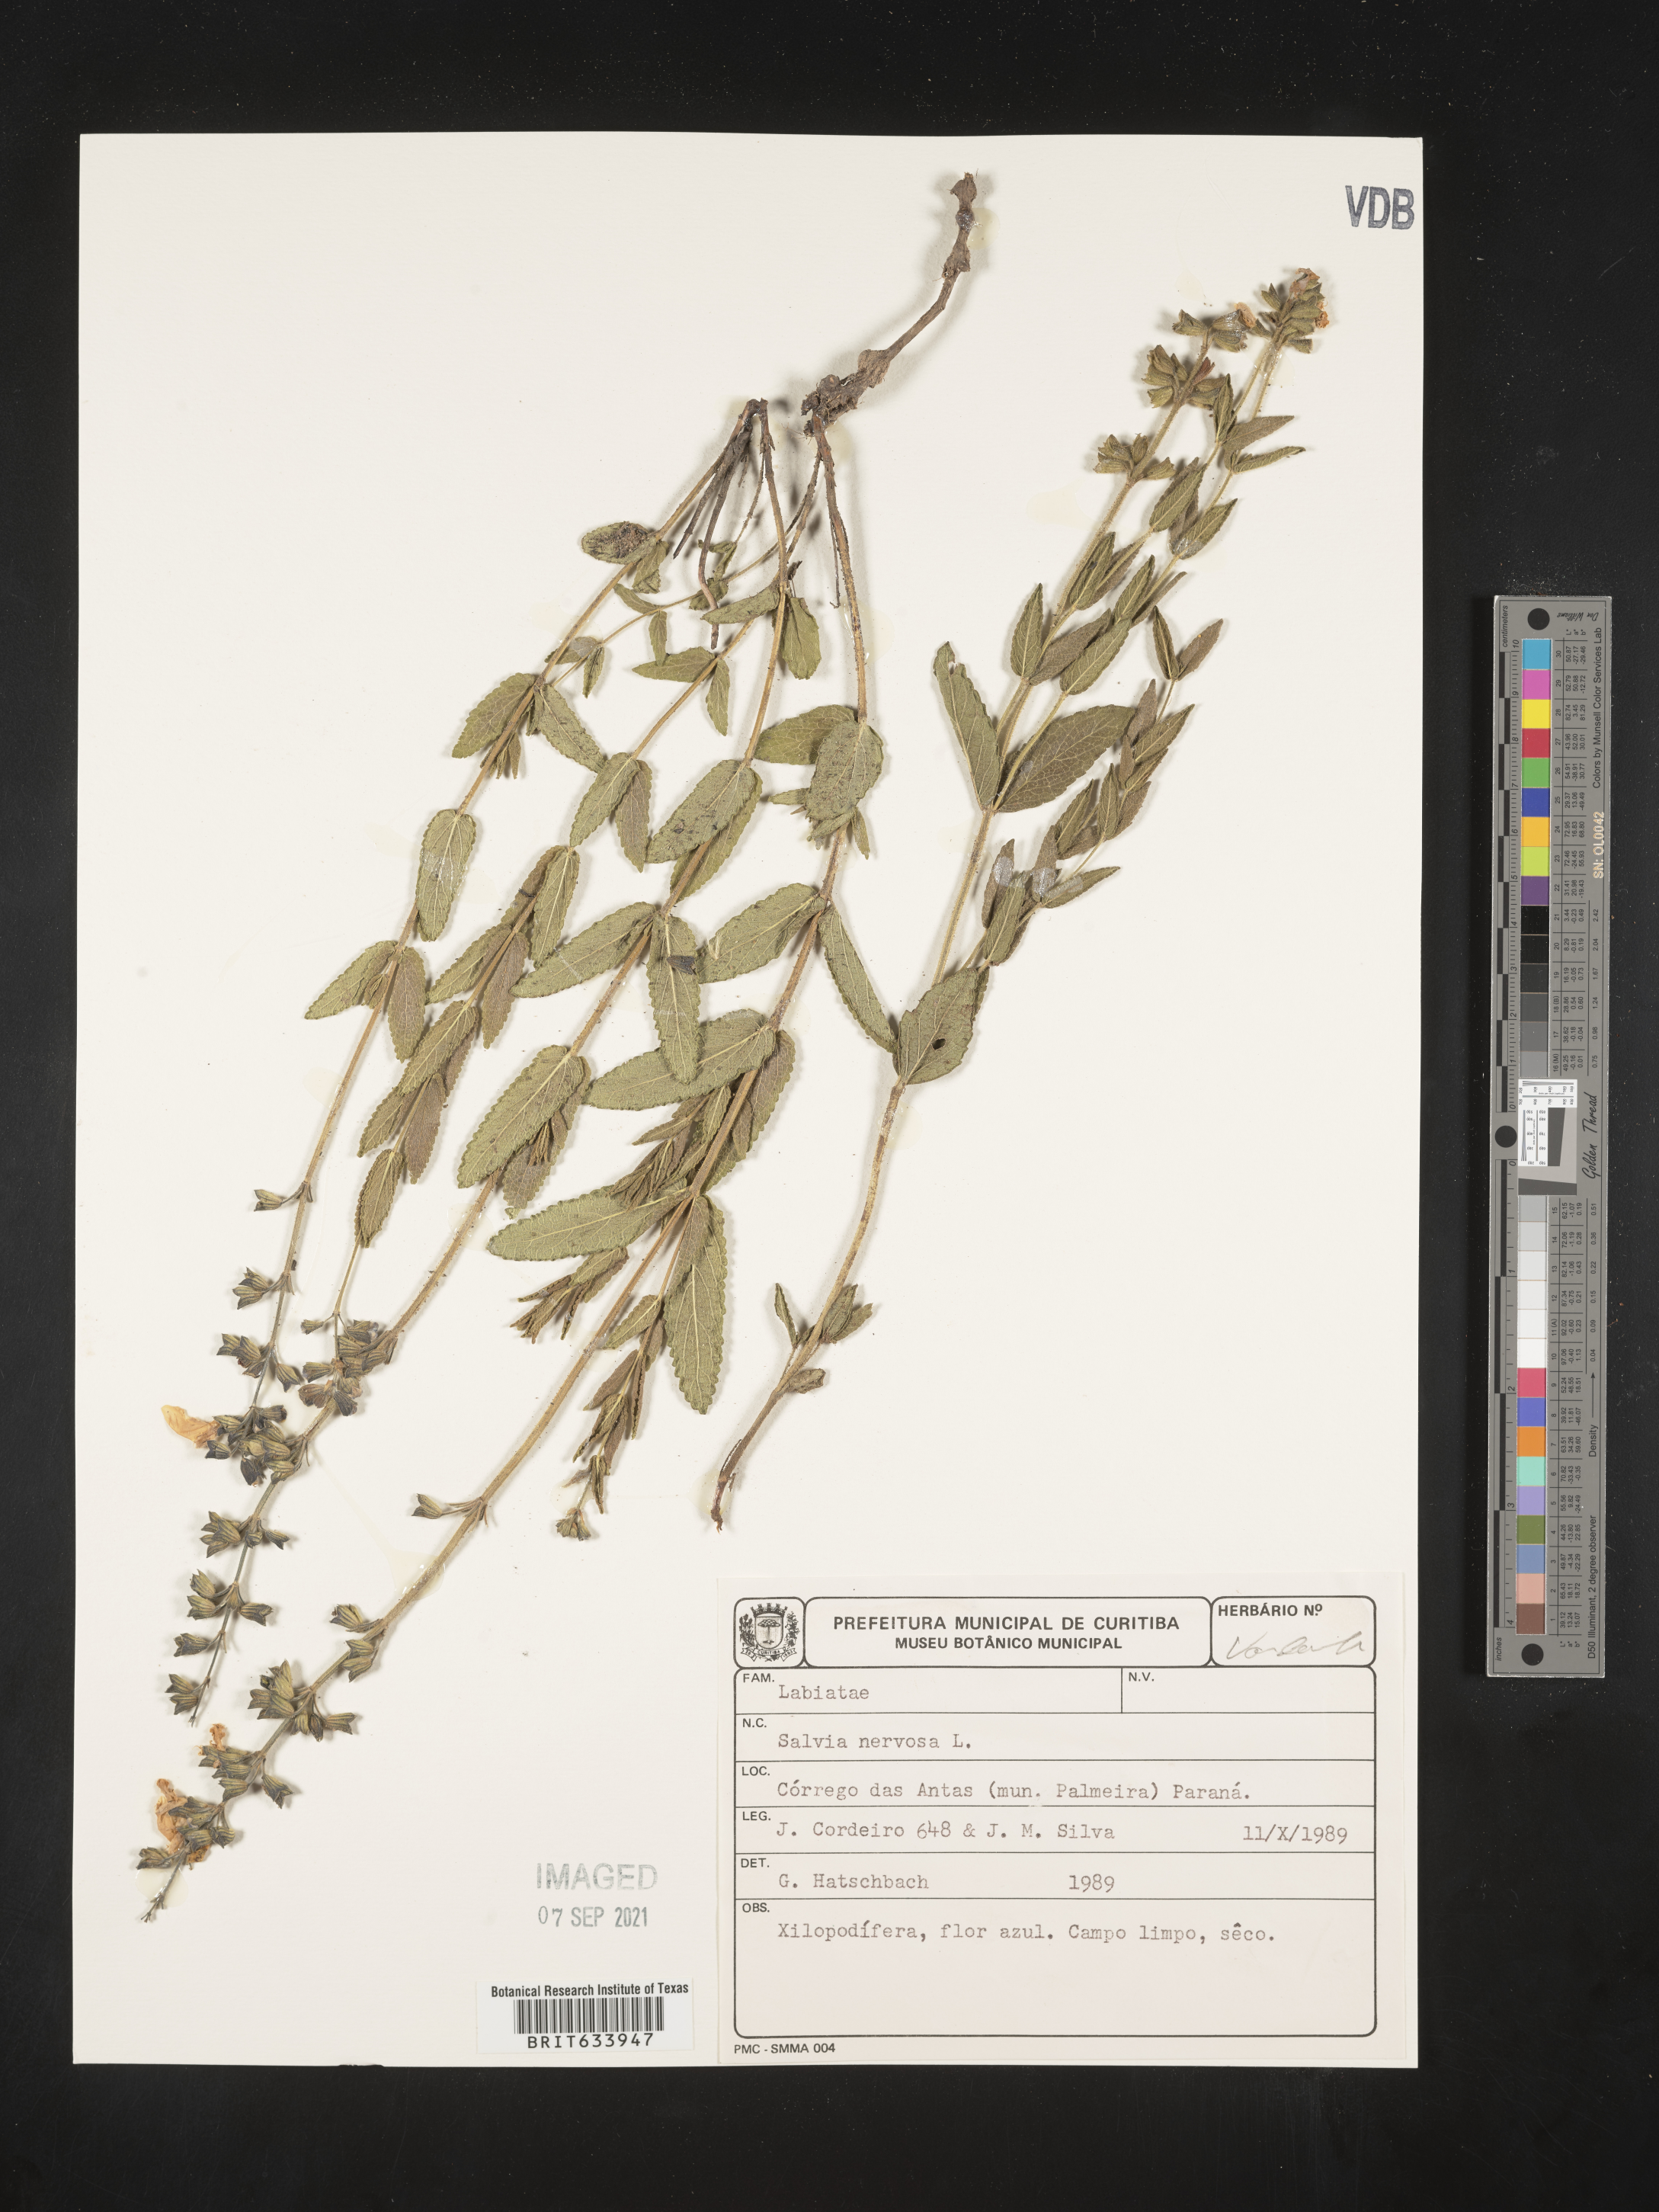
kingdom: Plantae
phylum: Tracheophyta
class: Magnoliopsida
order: Lamiales
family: Lamiaceae
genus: Salvia
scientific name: Salvia
